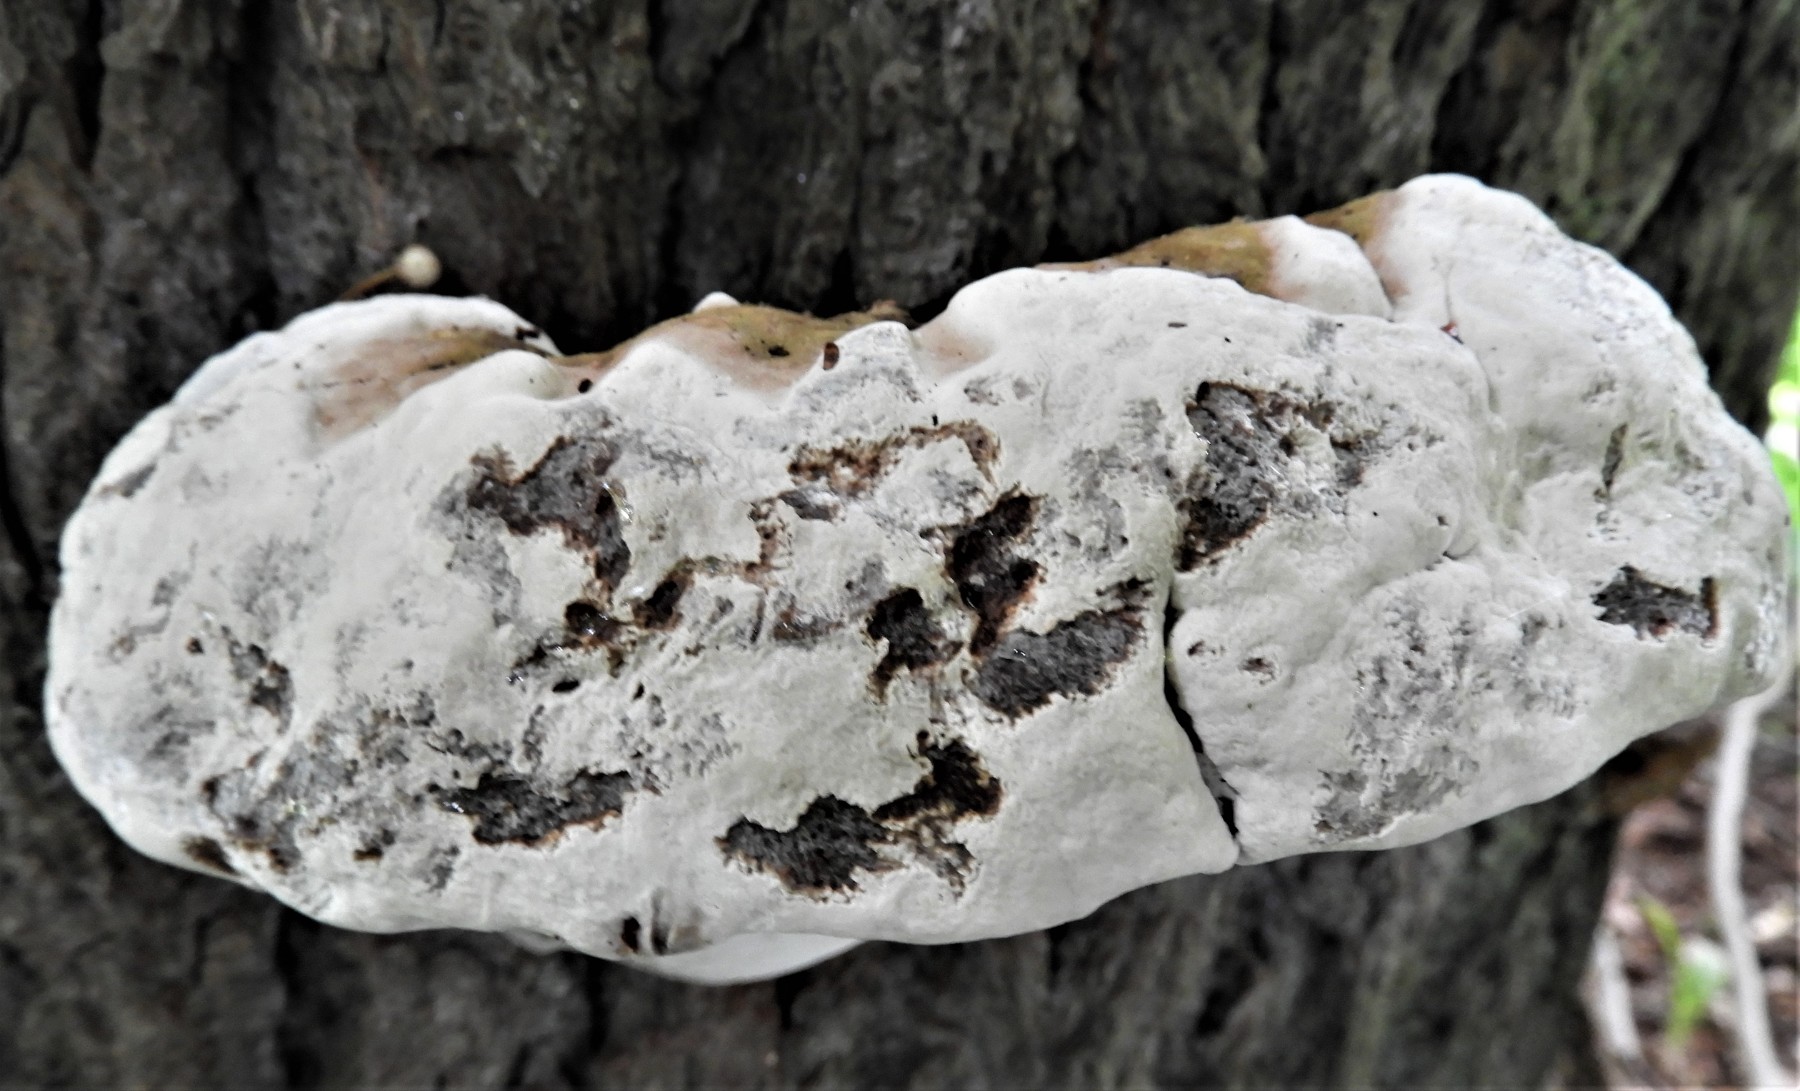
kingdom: Fungi
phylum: Basidiomycota
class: Agaricomycetes
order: Polyporales
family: Polyporaceae
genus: Ganoderma
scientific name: Ganoderma adspersum
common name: grov lakporesvamp
